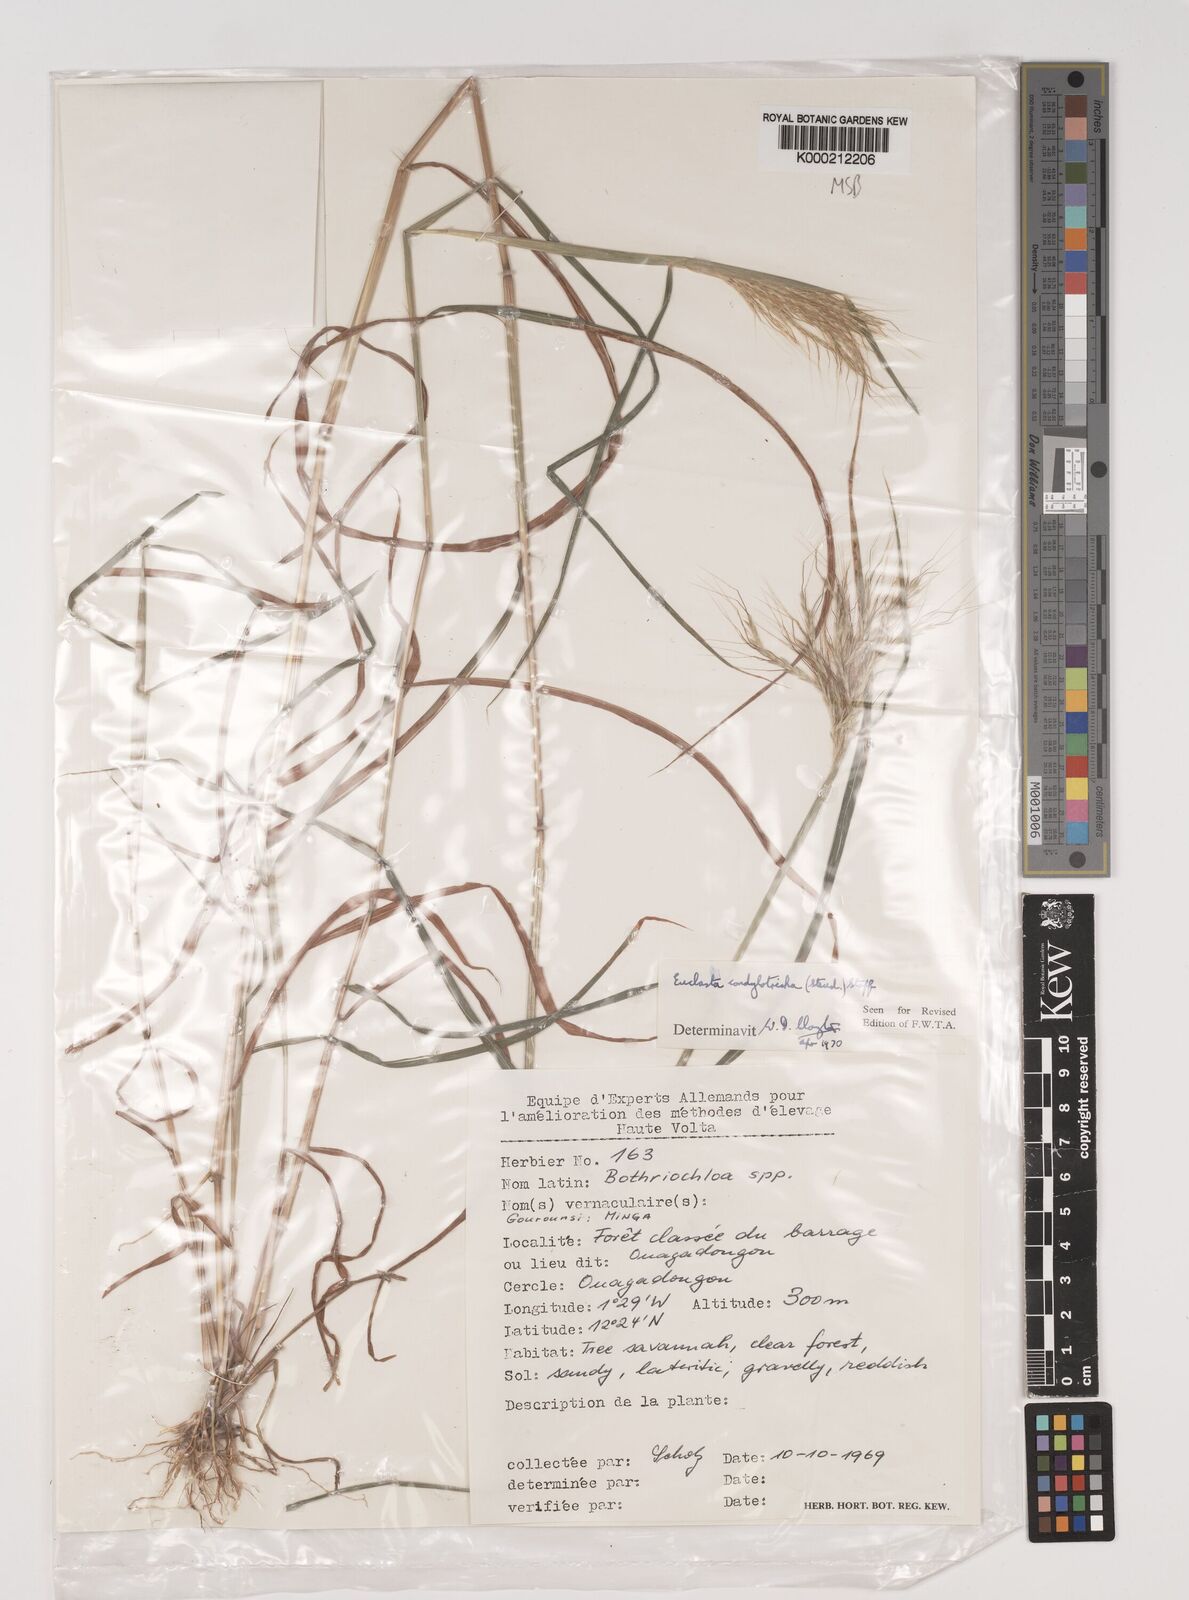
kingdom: Plantae
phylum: Tracheophyta
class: Liliopsida
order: Poales
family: Poaceae
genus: Euclasta
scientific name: Euclasta condylotricha
